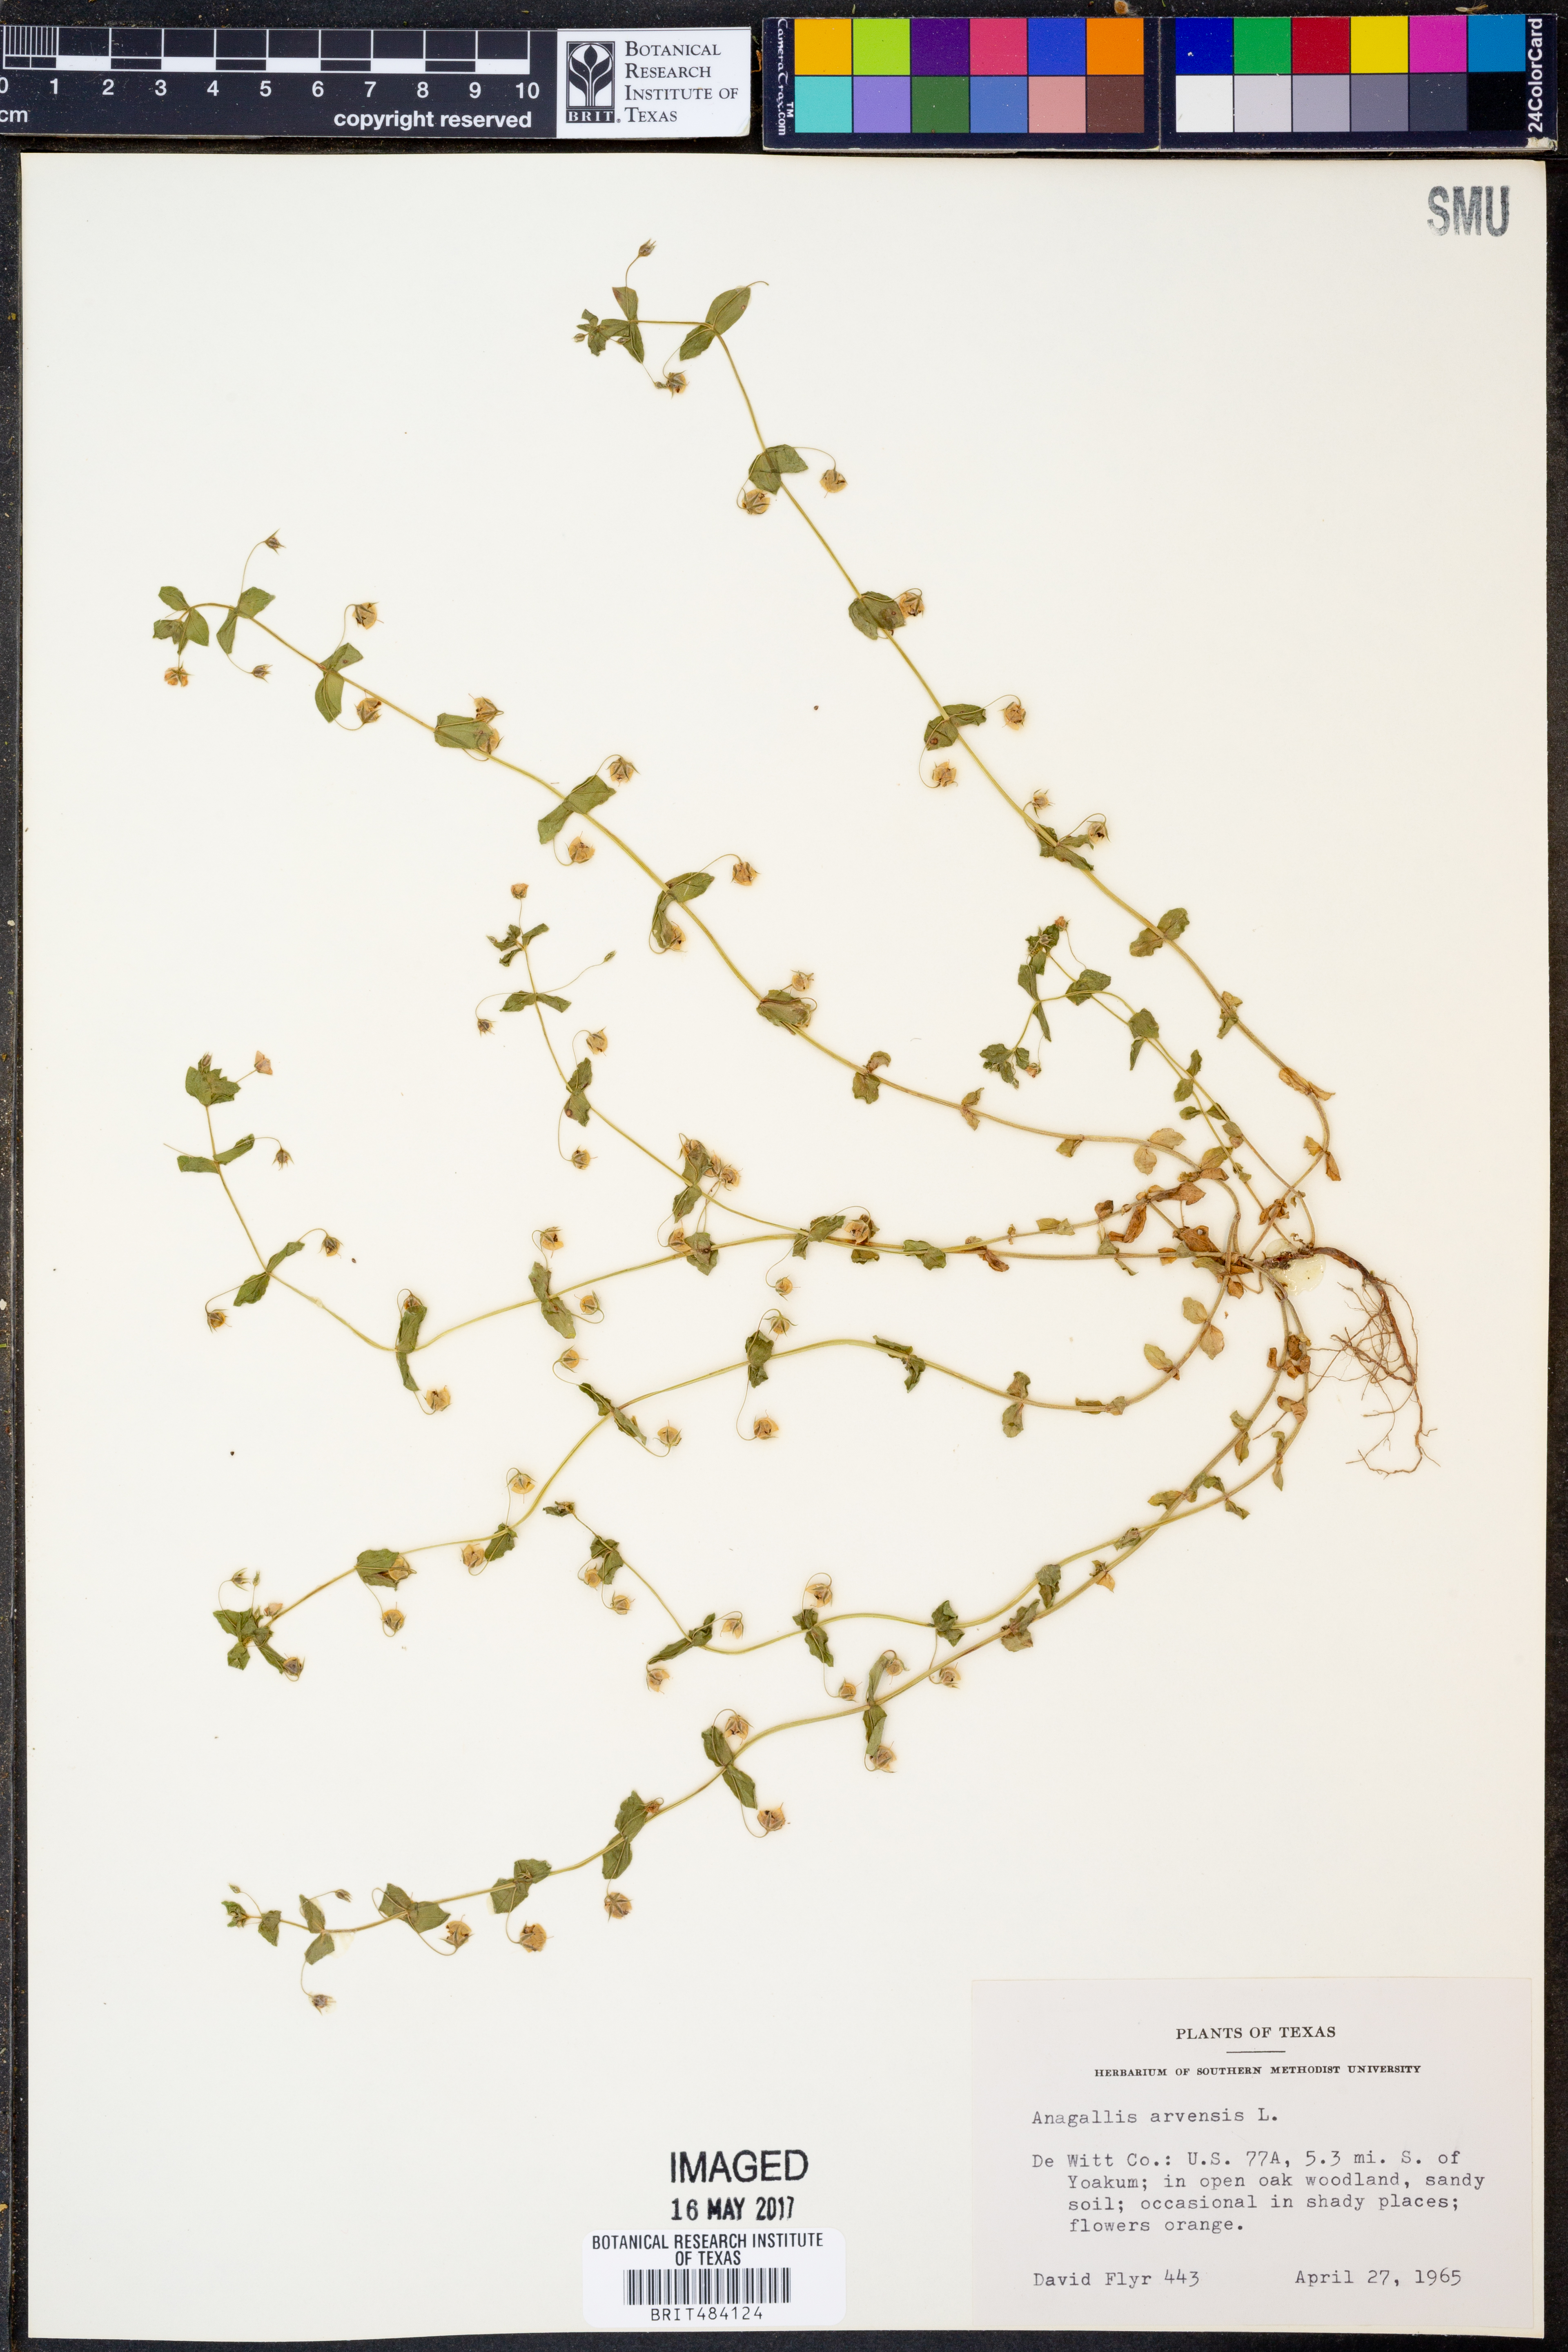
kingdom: Plantae
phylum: Tracheophyta
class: Magnoliopsida
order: Ericales
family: Primulaceae
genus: Lysimachia
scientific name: Lysimachia arvensis
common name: Scarlet pimpernel
